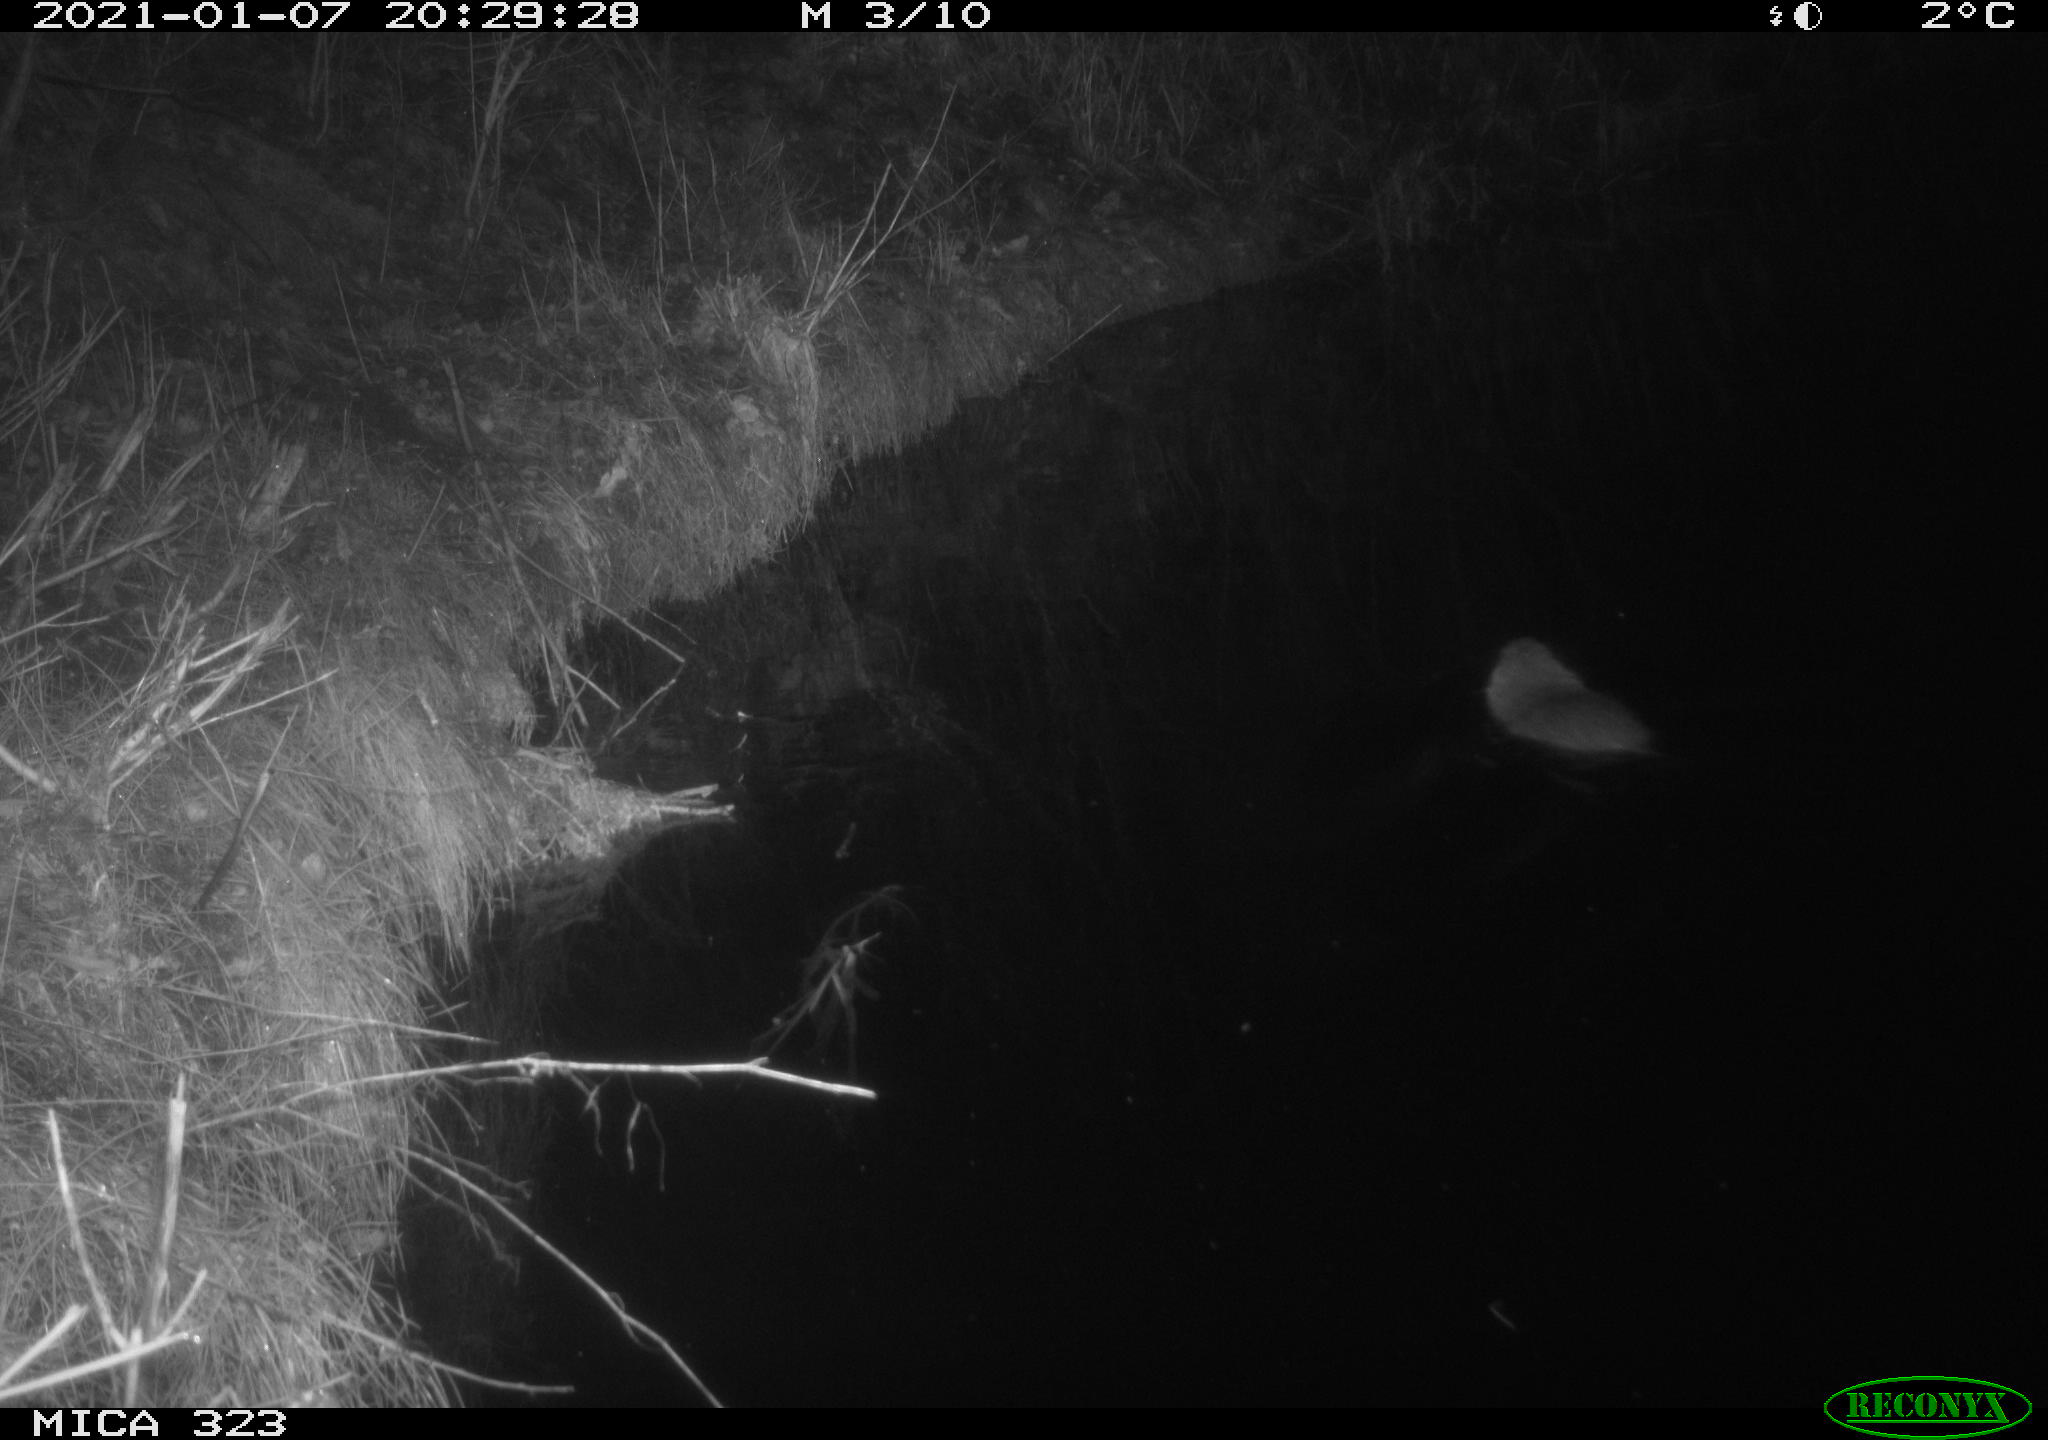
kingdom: Animalia
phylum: Chordata
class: Mammalia
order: Rodentia
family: Myocastoridae
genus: Myocastor
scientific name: Myocastor coypus
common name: Coypu
